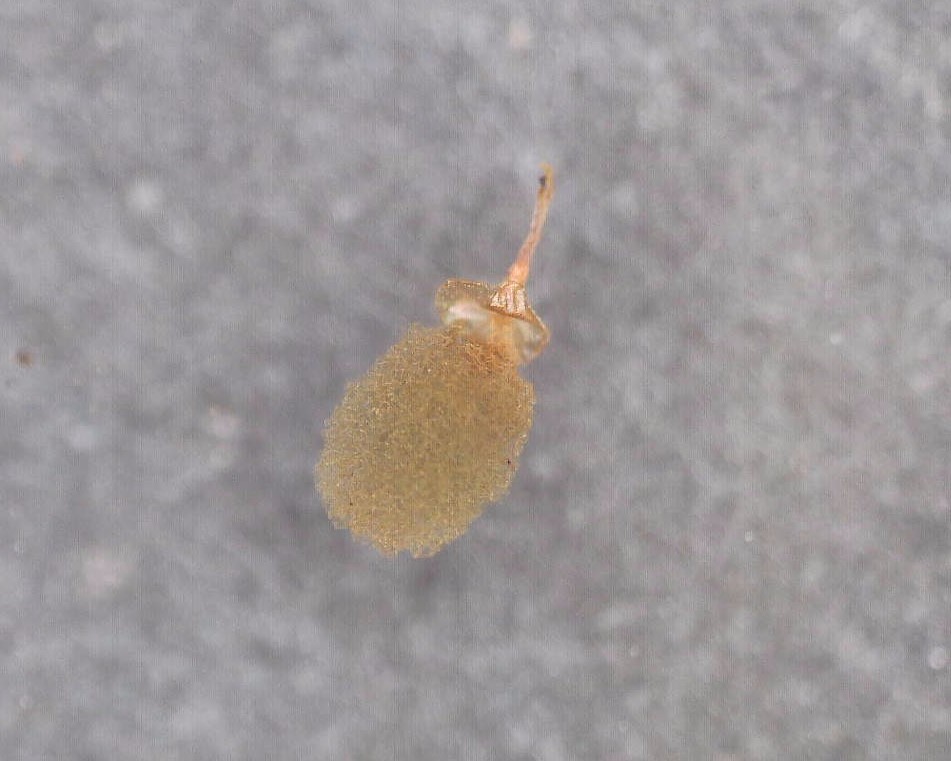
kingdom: Protozoa
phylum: Mycetozoa
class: Myxomycetes
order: Trichiales
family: Arcyriaceae
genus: Arcyria
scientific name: Arcyria ferruginea
